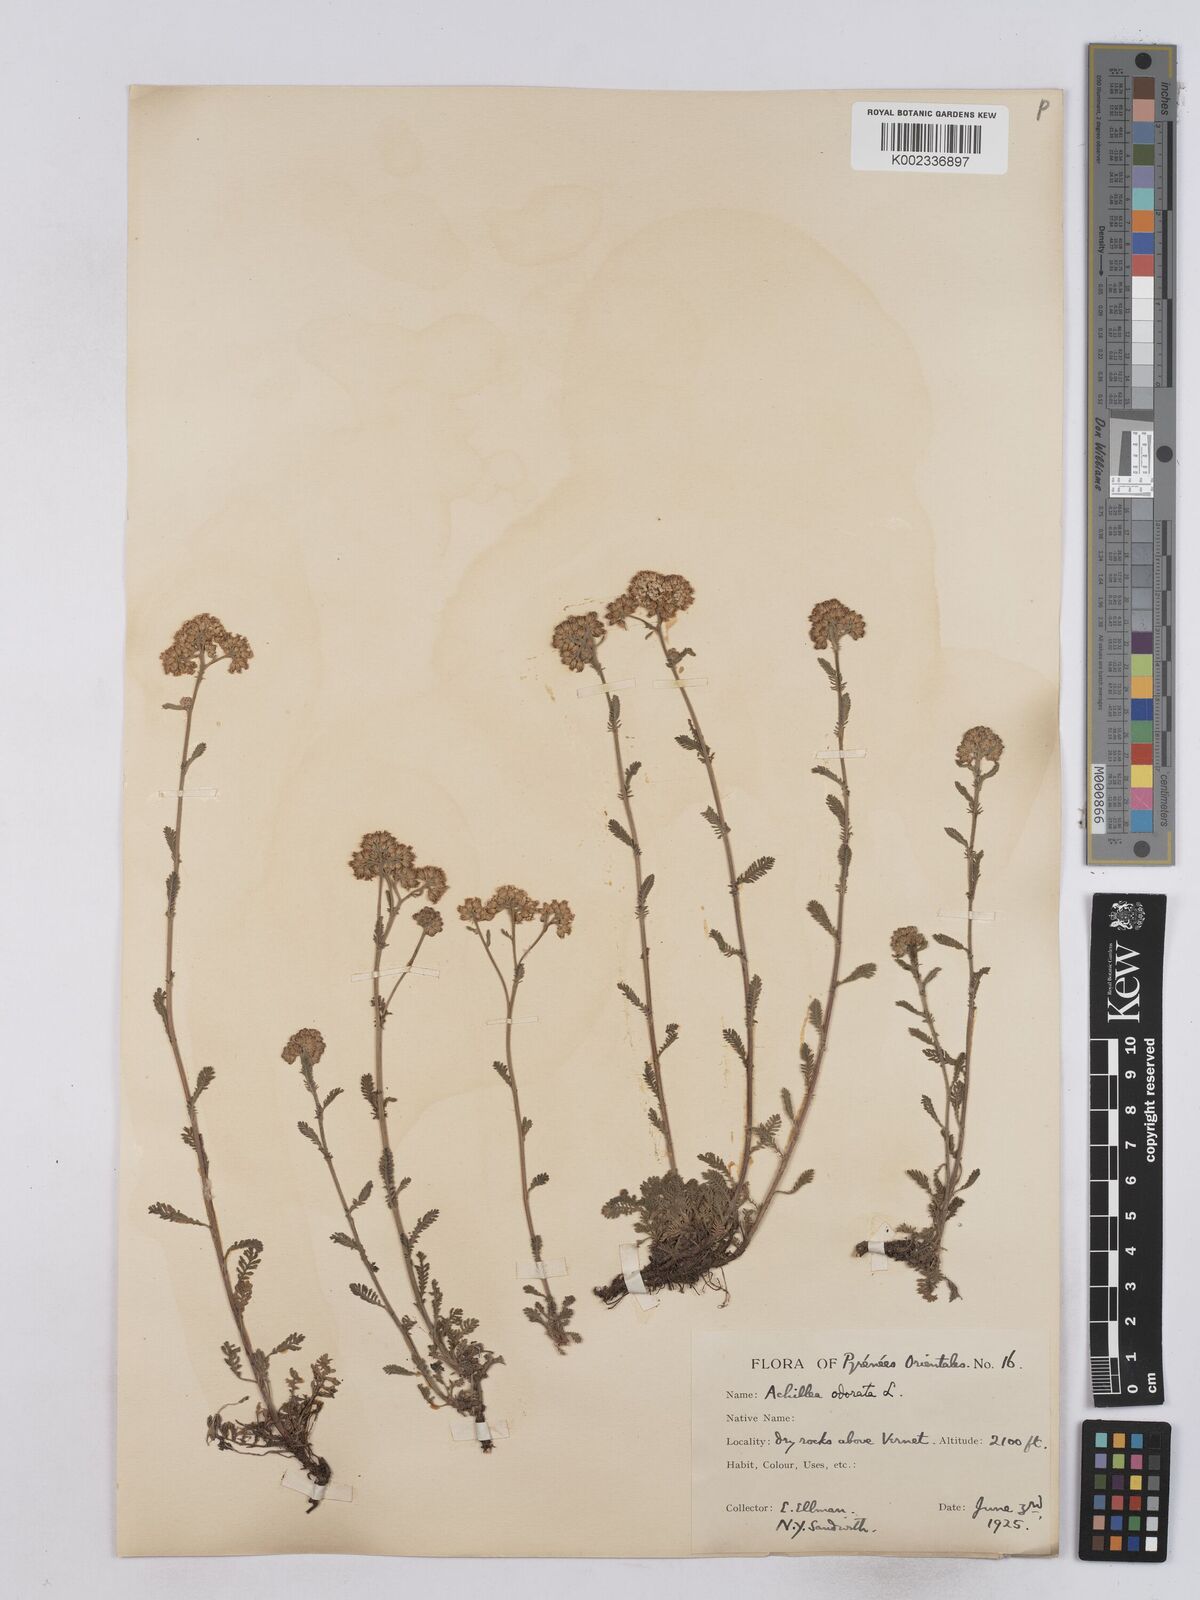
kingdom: Plantae
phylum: Tracheophyta
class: Magnoliopsida
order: Asterales
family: Asteraceae
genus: Achillea
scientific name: Achillea odorata
